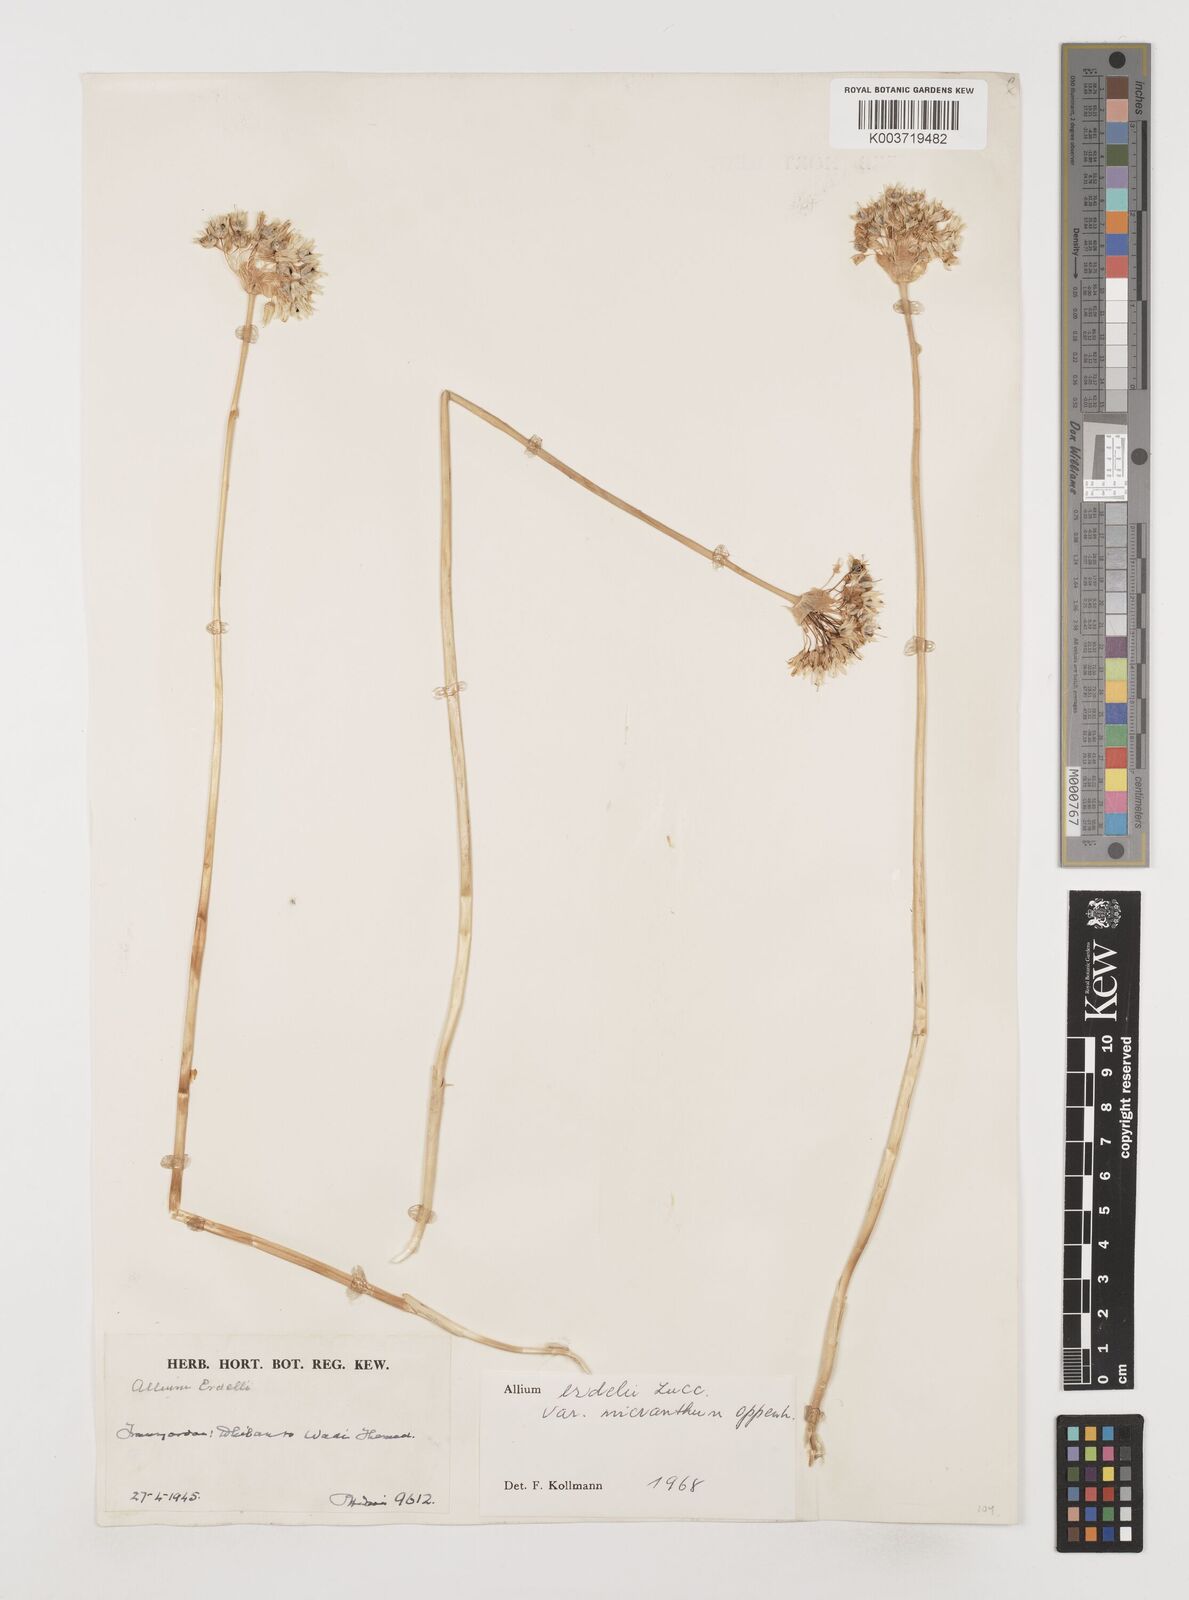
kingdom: Plantae
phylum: Tracheophyta
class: Liliopsida
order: Asparagales
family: Amaryllidaceae
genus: Allium
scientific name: Allium erdelii
